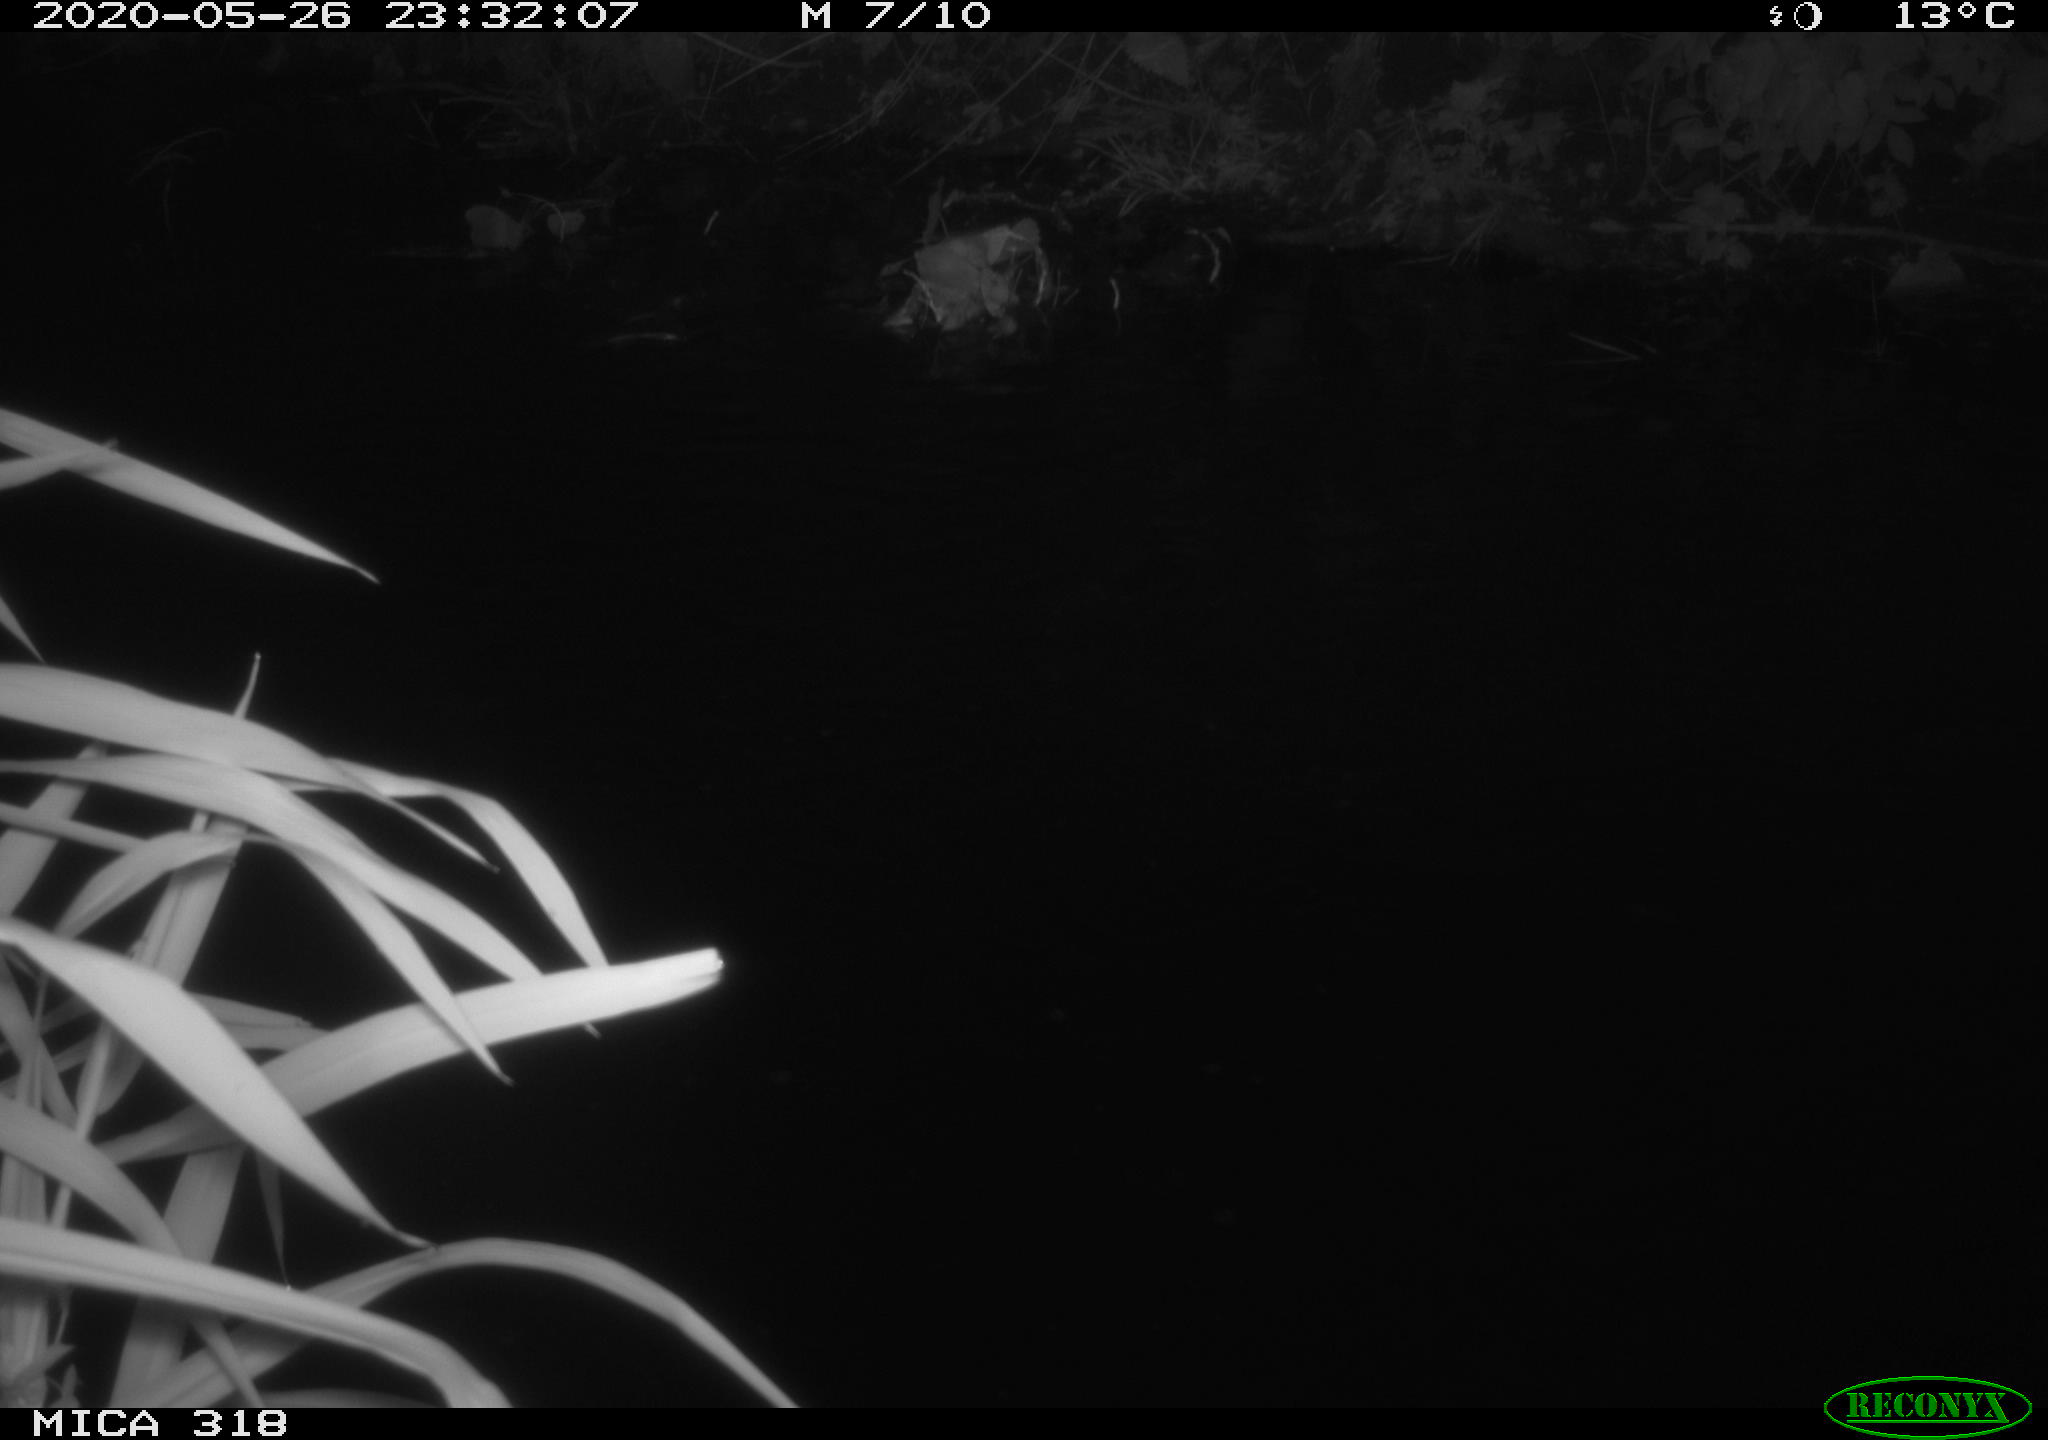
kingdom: Animalia
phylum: Chordata
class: Aves
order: Pelecaniformes
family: Ardeidae
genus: Ardea
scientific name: Ardea cinerea
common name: Grey heron
